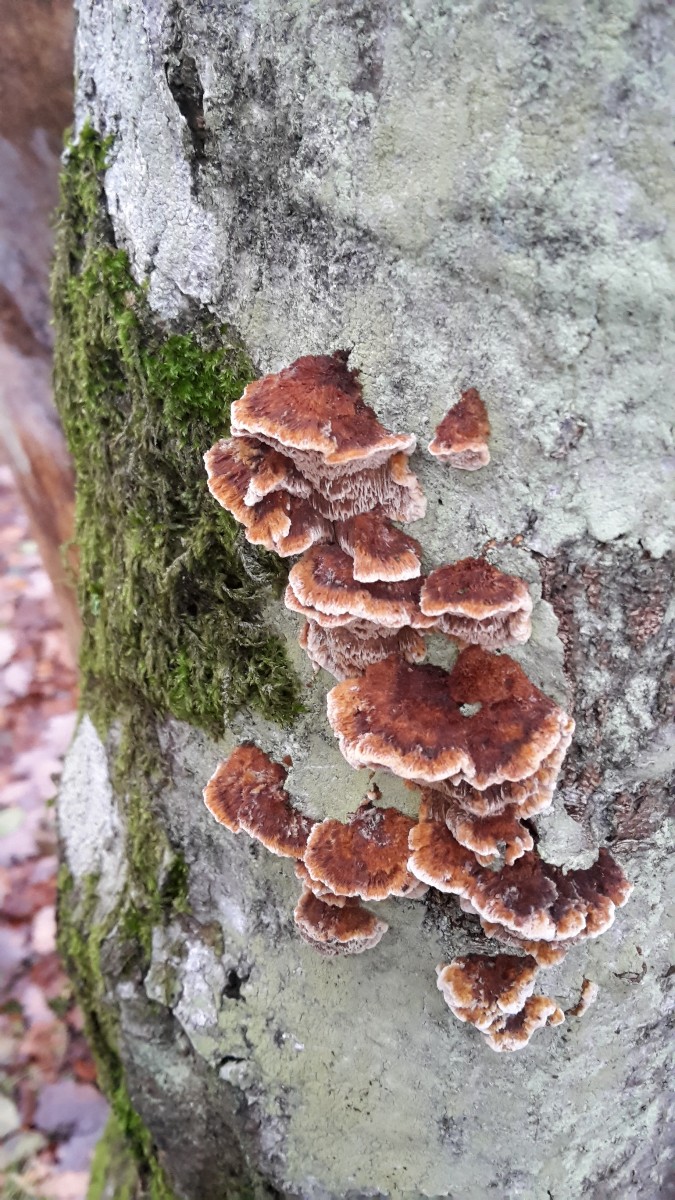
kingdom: Fungi
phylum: Basidiomycota
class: Agaricomycetes
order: Hymenochaetales
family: Hymenochaetaceae
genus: Mensularia
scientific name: Mensularia nodulosa
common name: bøge-spejlporesvamp
